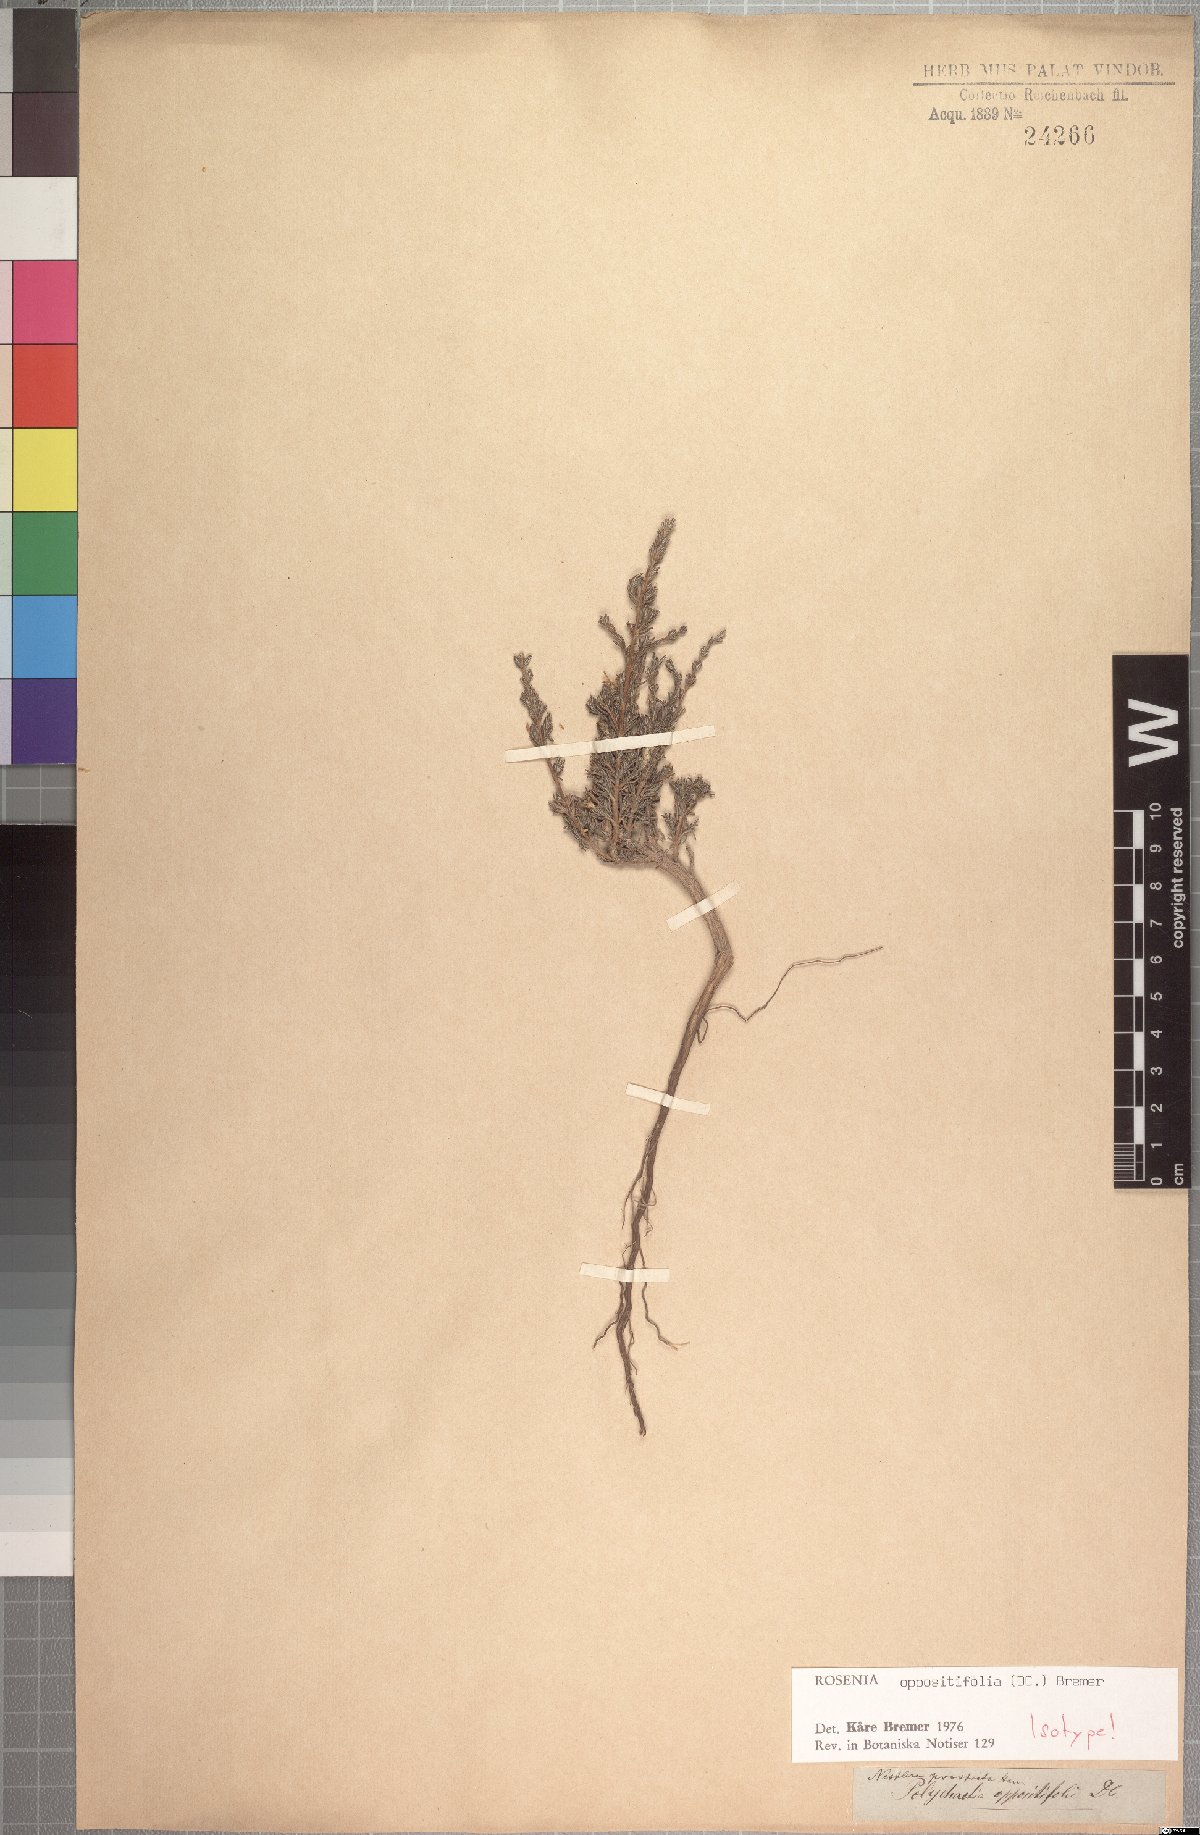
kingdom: Plantae
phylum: Tracheophyta
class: Magnoliopsida
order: Asterales
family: Asteraceae
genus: Oedera
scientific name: Oedera oppositifolia
